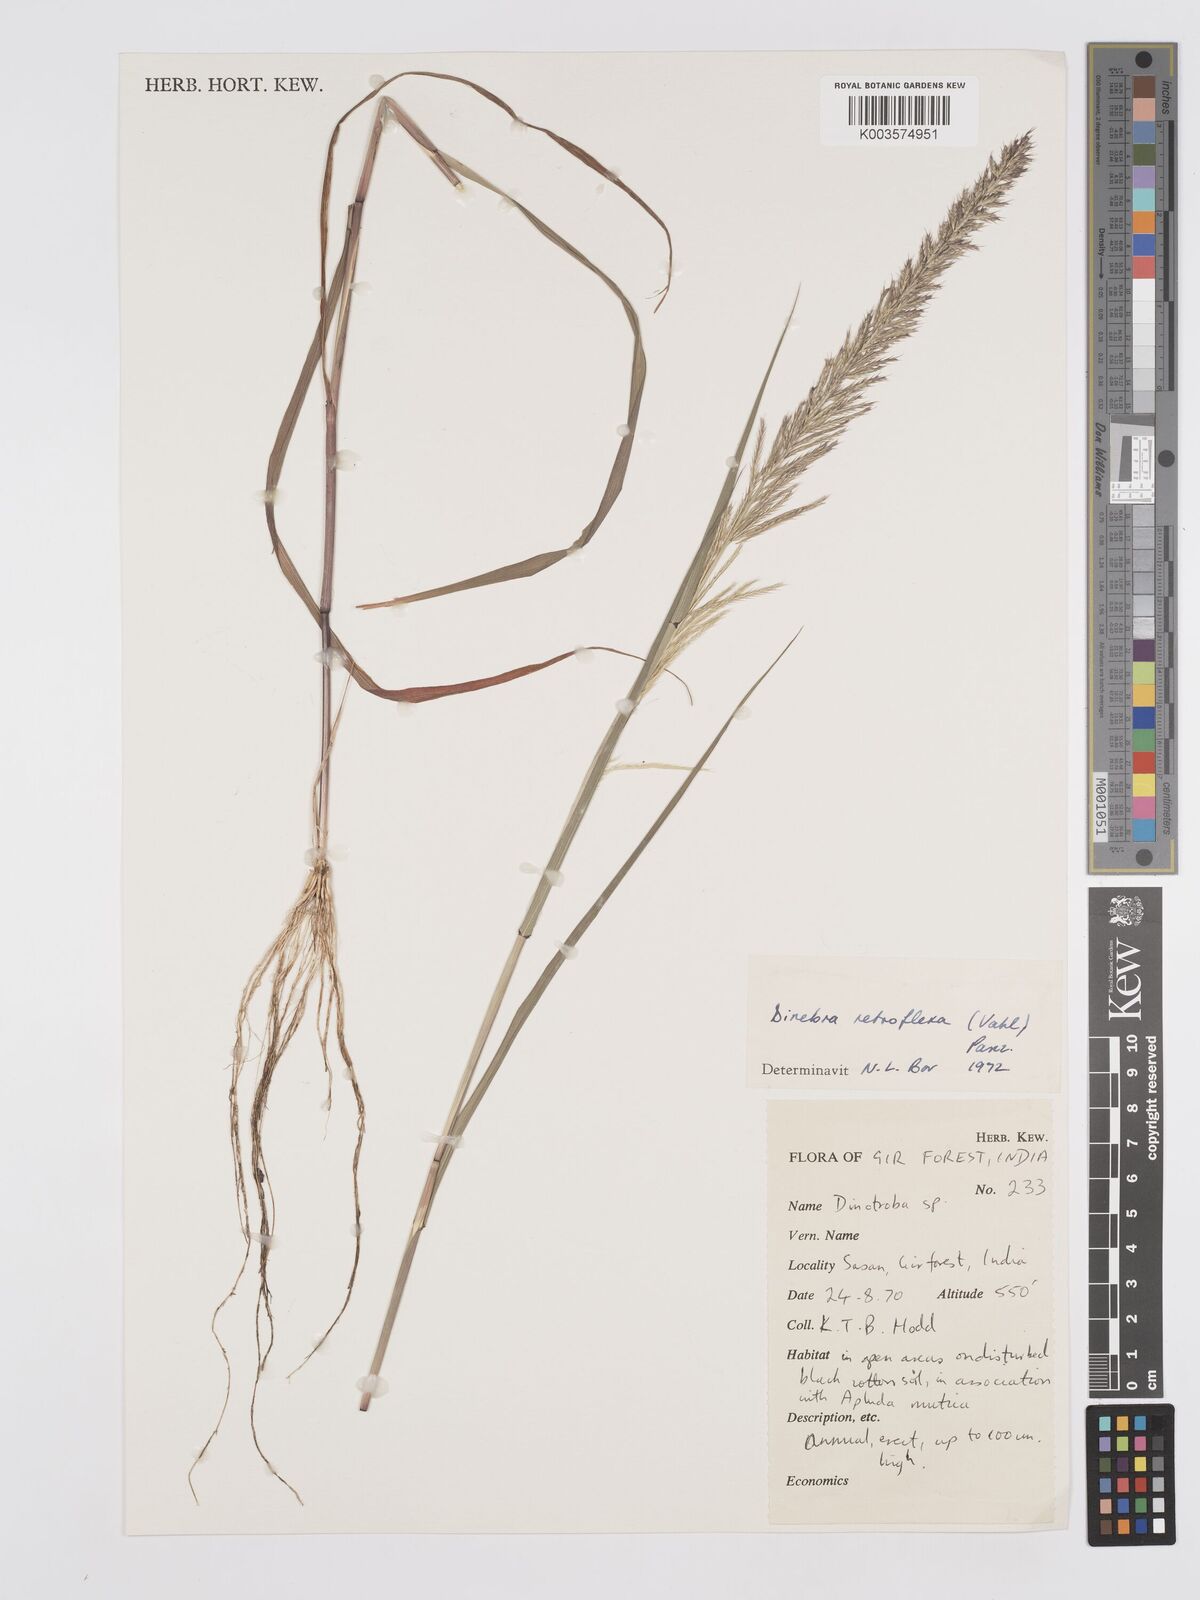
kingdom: Plantae
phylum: Tracheophyta
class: Liliopsida
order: Poales
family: Poaceae
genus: Dinebra
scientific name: Dinebra retroflexa
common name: Viper grass
